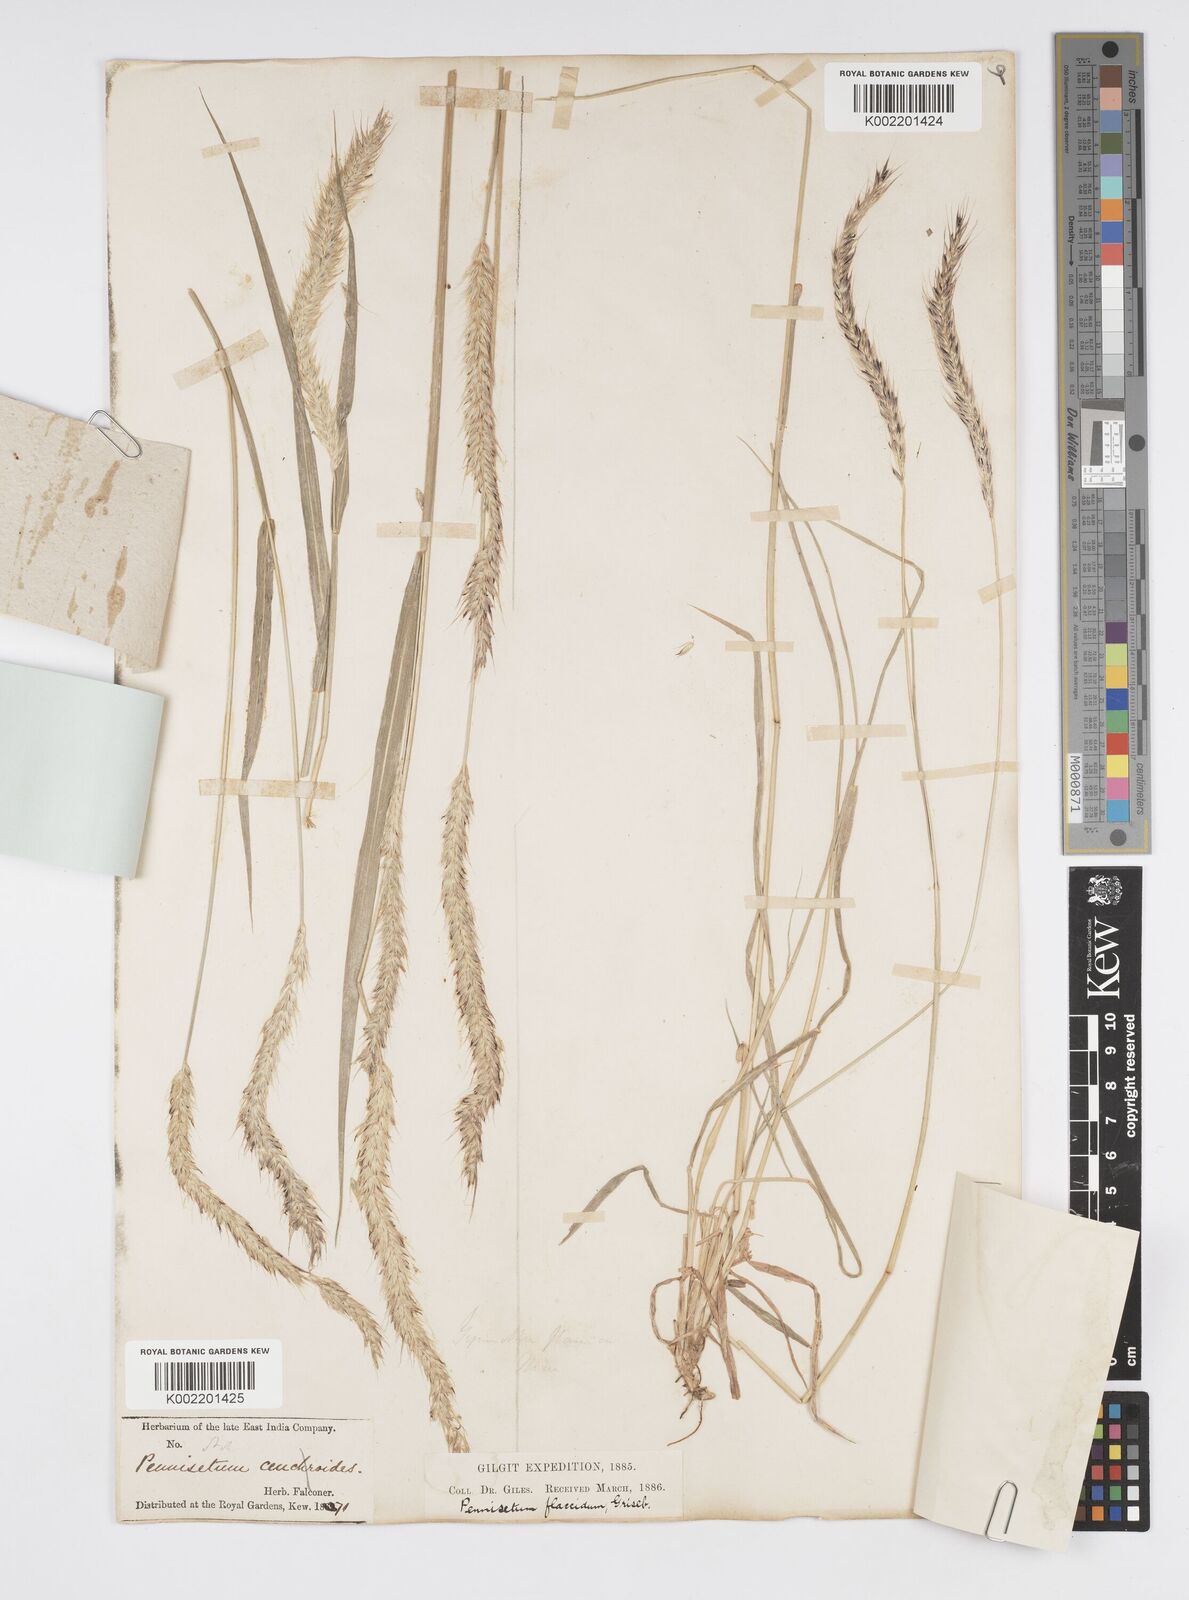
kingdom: Plantae
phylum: Tracheophyta
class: Liliopsida
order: Poales
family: Poaceae
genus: Cenchrus
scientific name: Cenchrus flaccidus
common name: Flaccid grass
